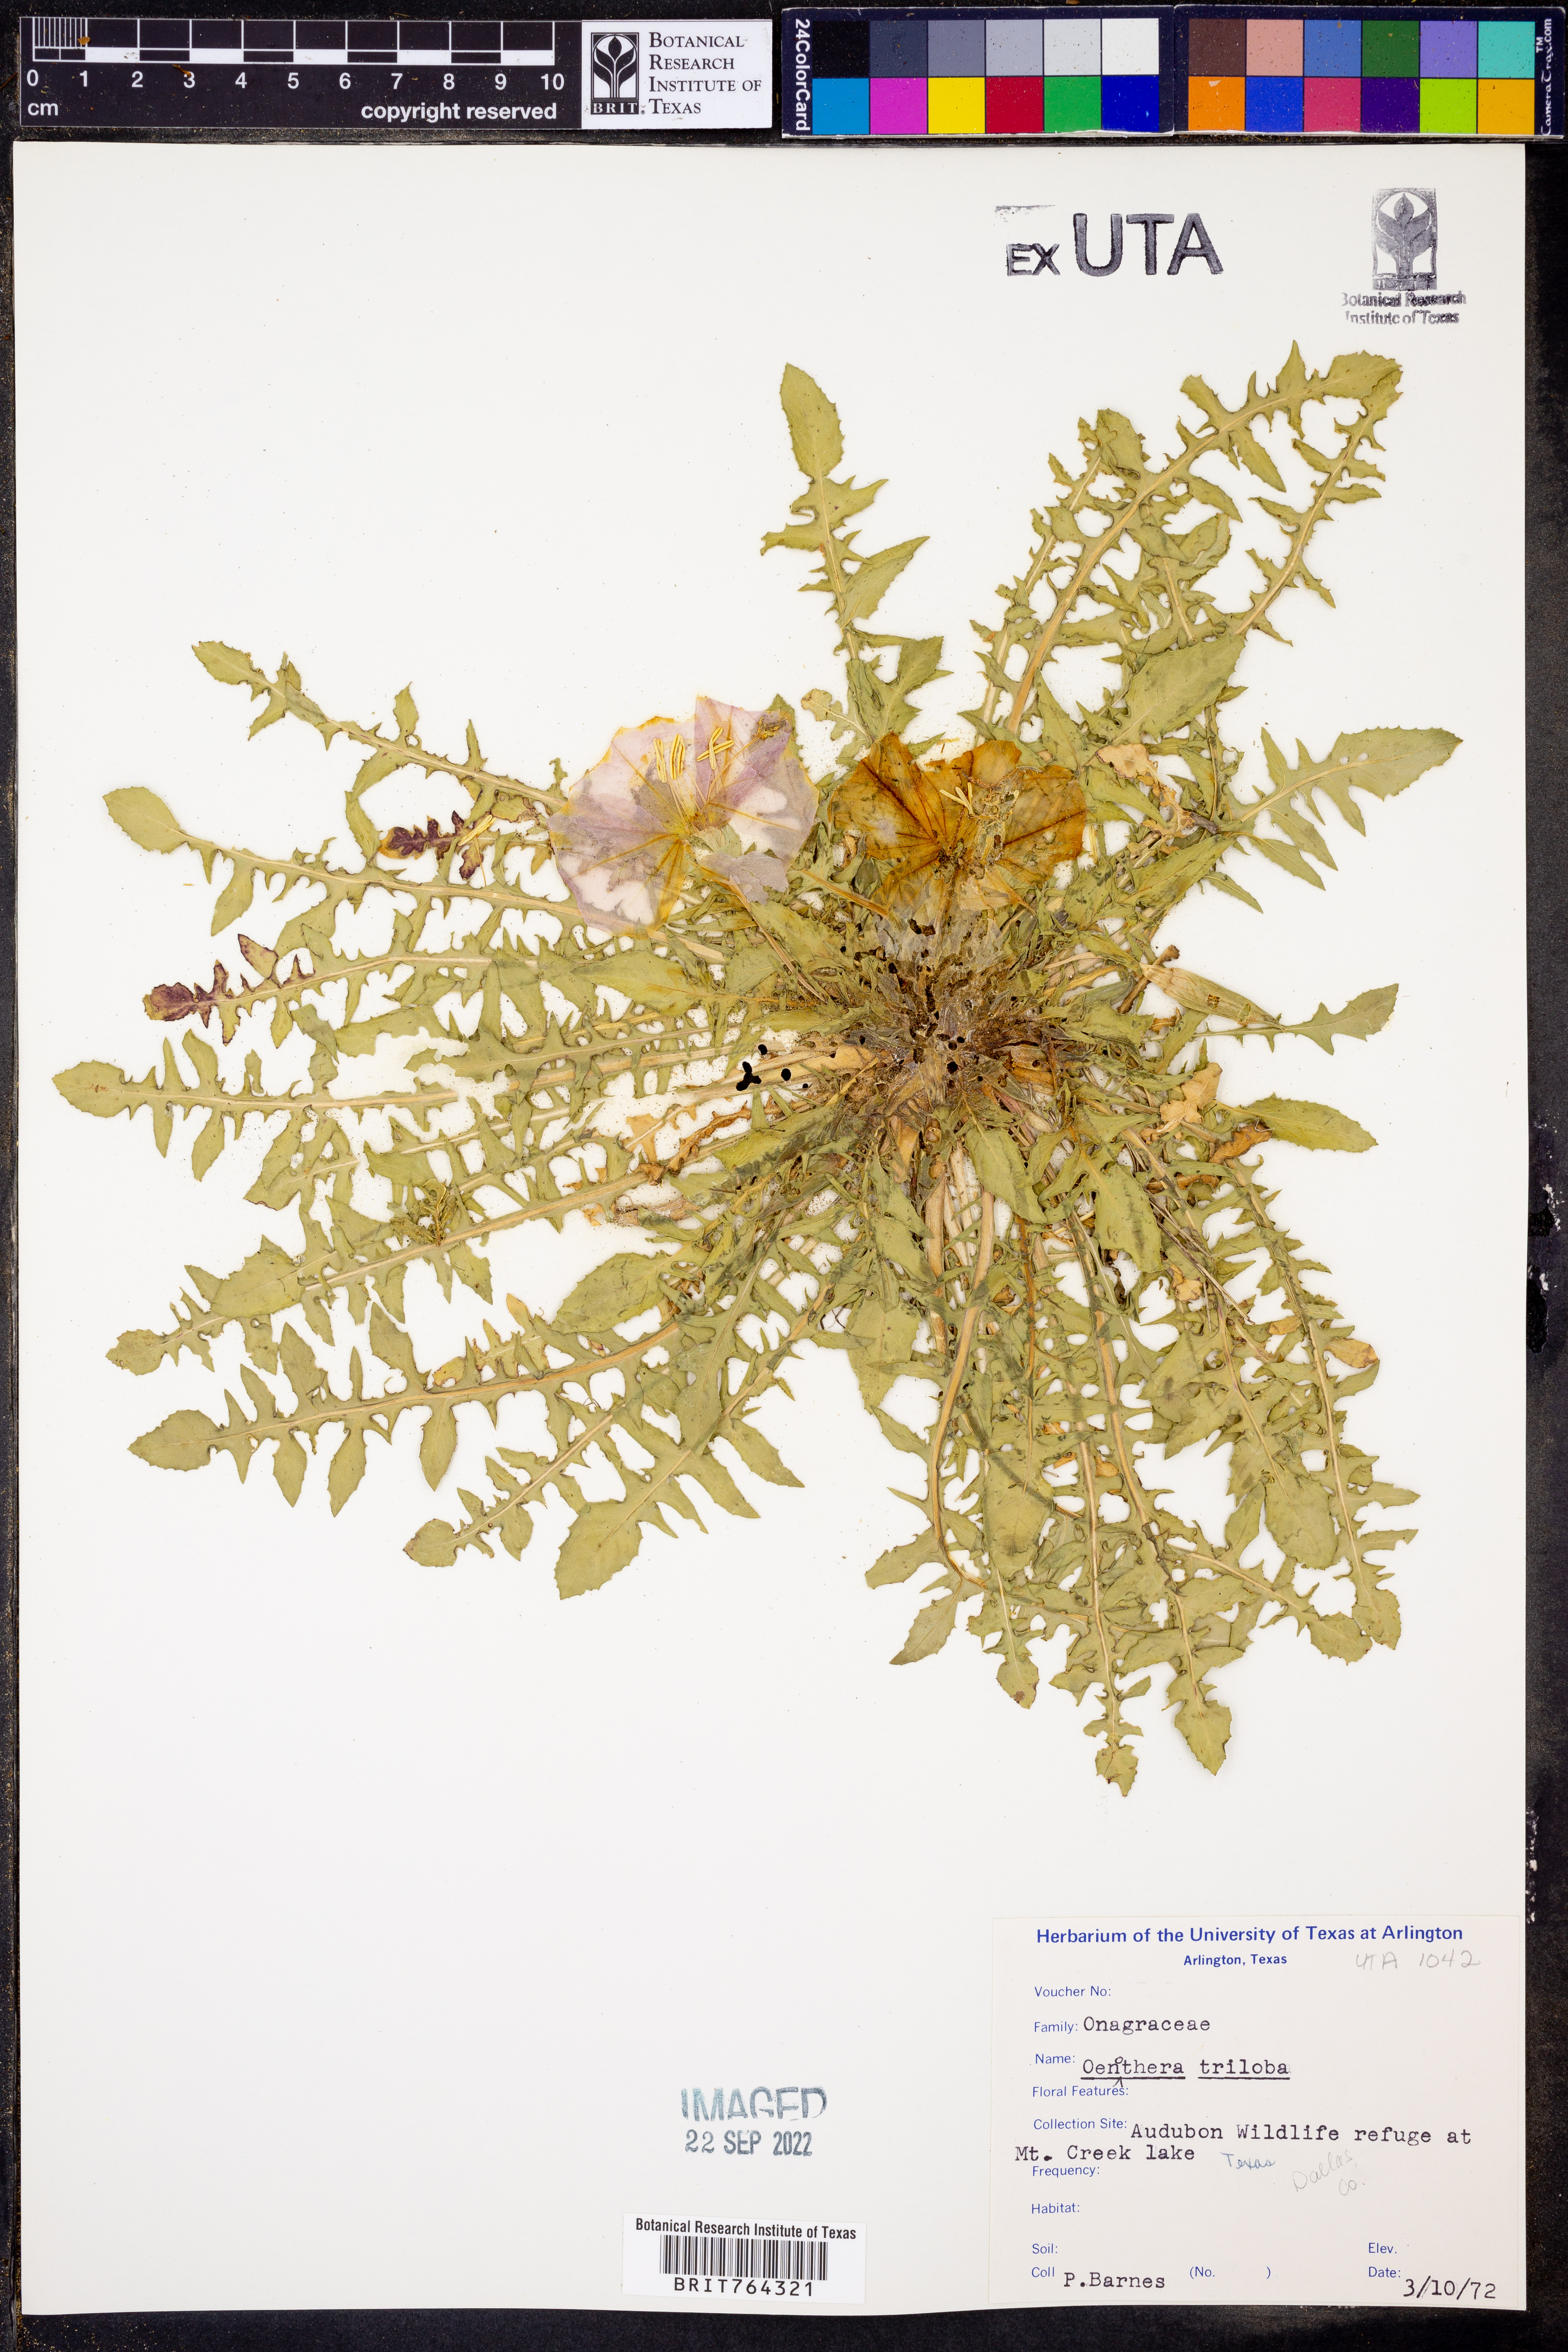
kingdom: Plantae
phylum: Tracheophyta
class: Magnoliopsida
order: Myrtales
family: Onagraceae
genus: Oenothera
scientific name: Oenothera triloba
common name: Sessile evening-primrose
